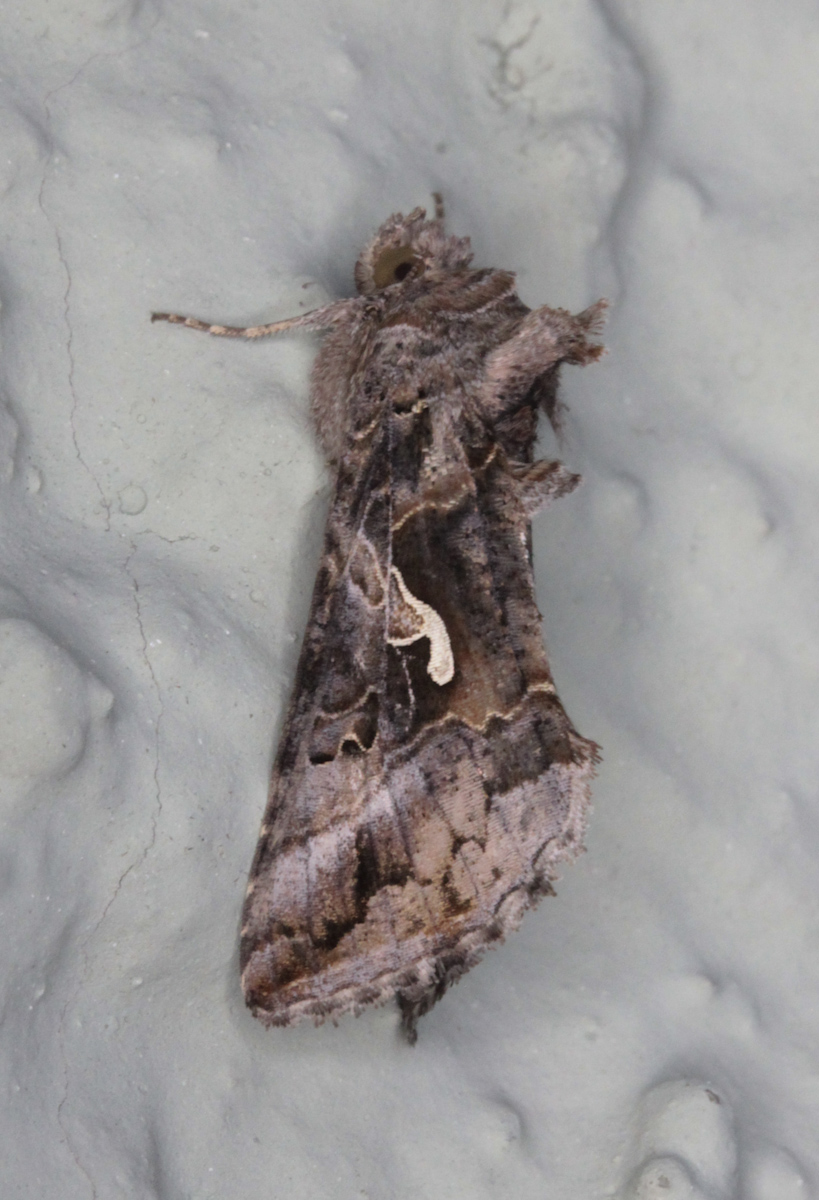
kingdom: Animalia
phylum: Arthropoda
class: Insecta
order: Lepidoptera
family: Noctuidae
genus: Autographa
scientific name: Autographa gamma
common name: Silver y
